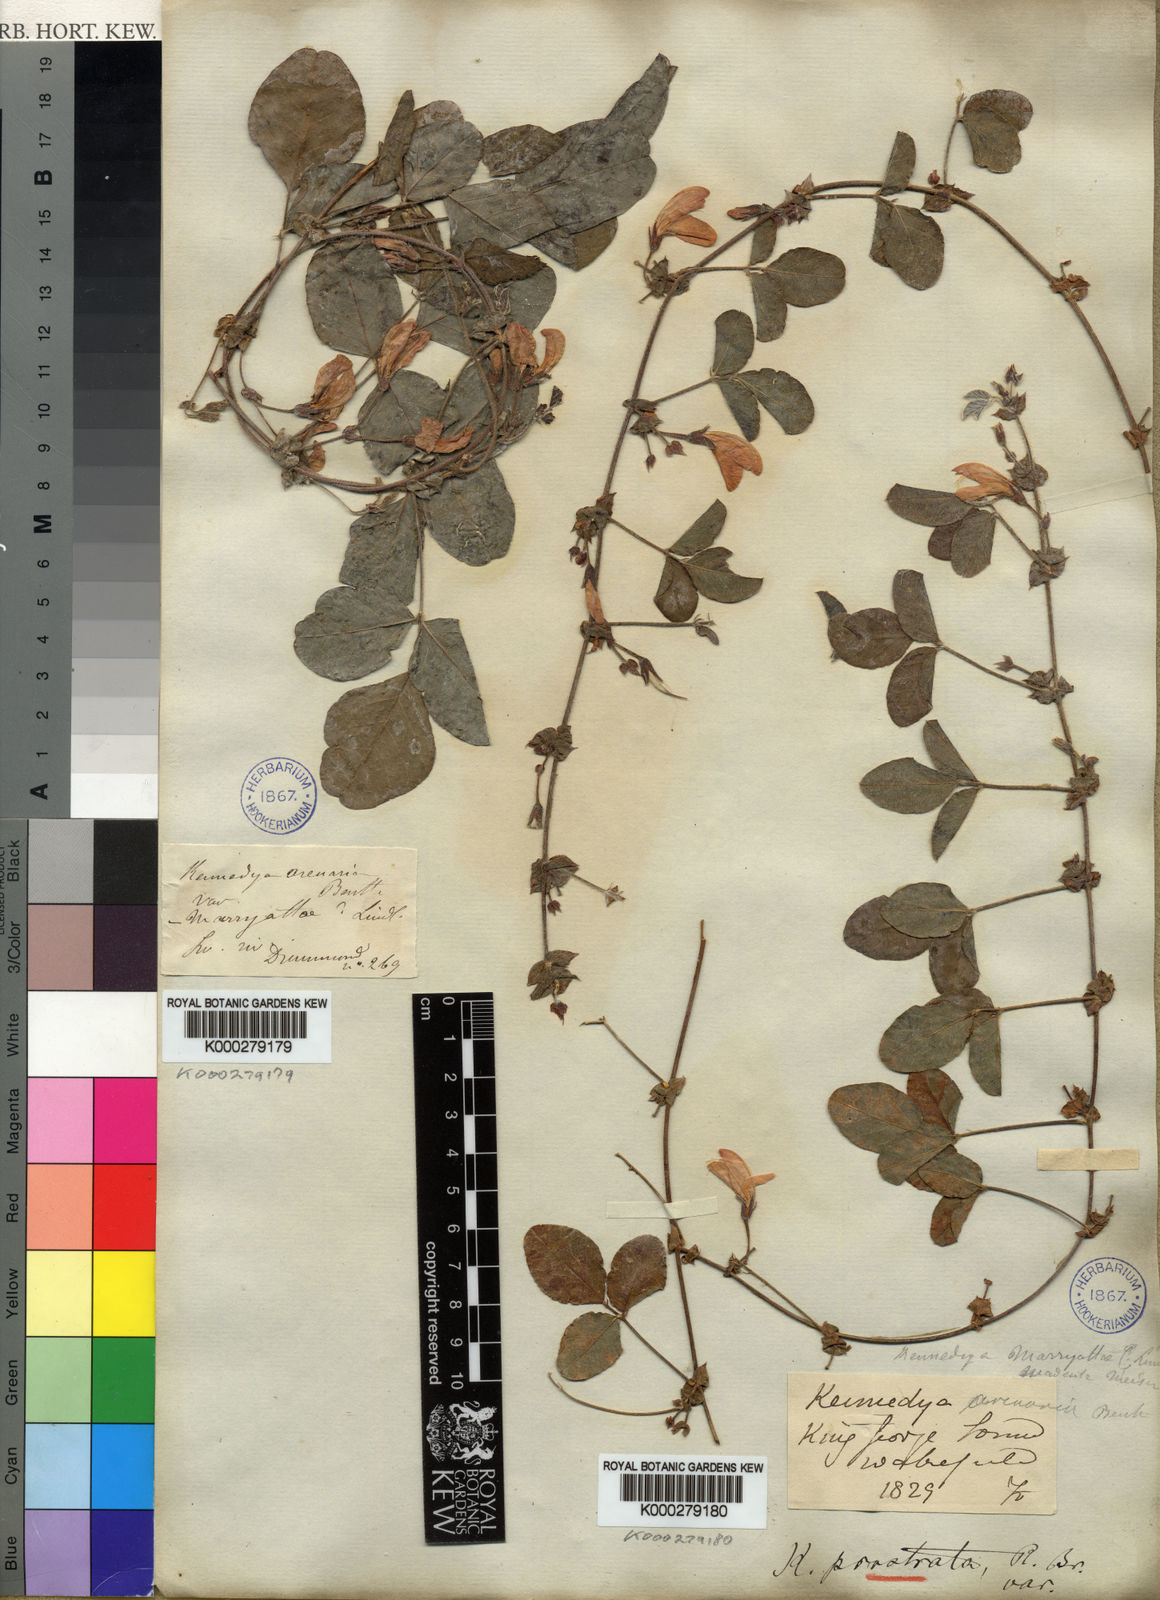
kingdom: Plantae
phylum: Tracheophyta
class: Magnoliopsida
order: Fabales
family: Fabaceae
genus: Kennedia
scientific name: Kennedia prostrata
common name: Running-postman
